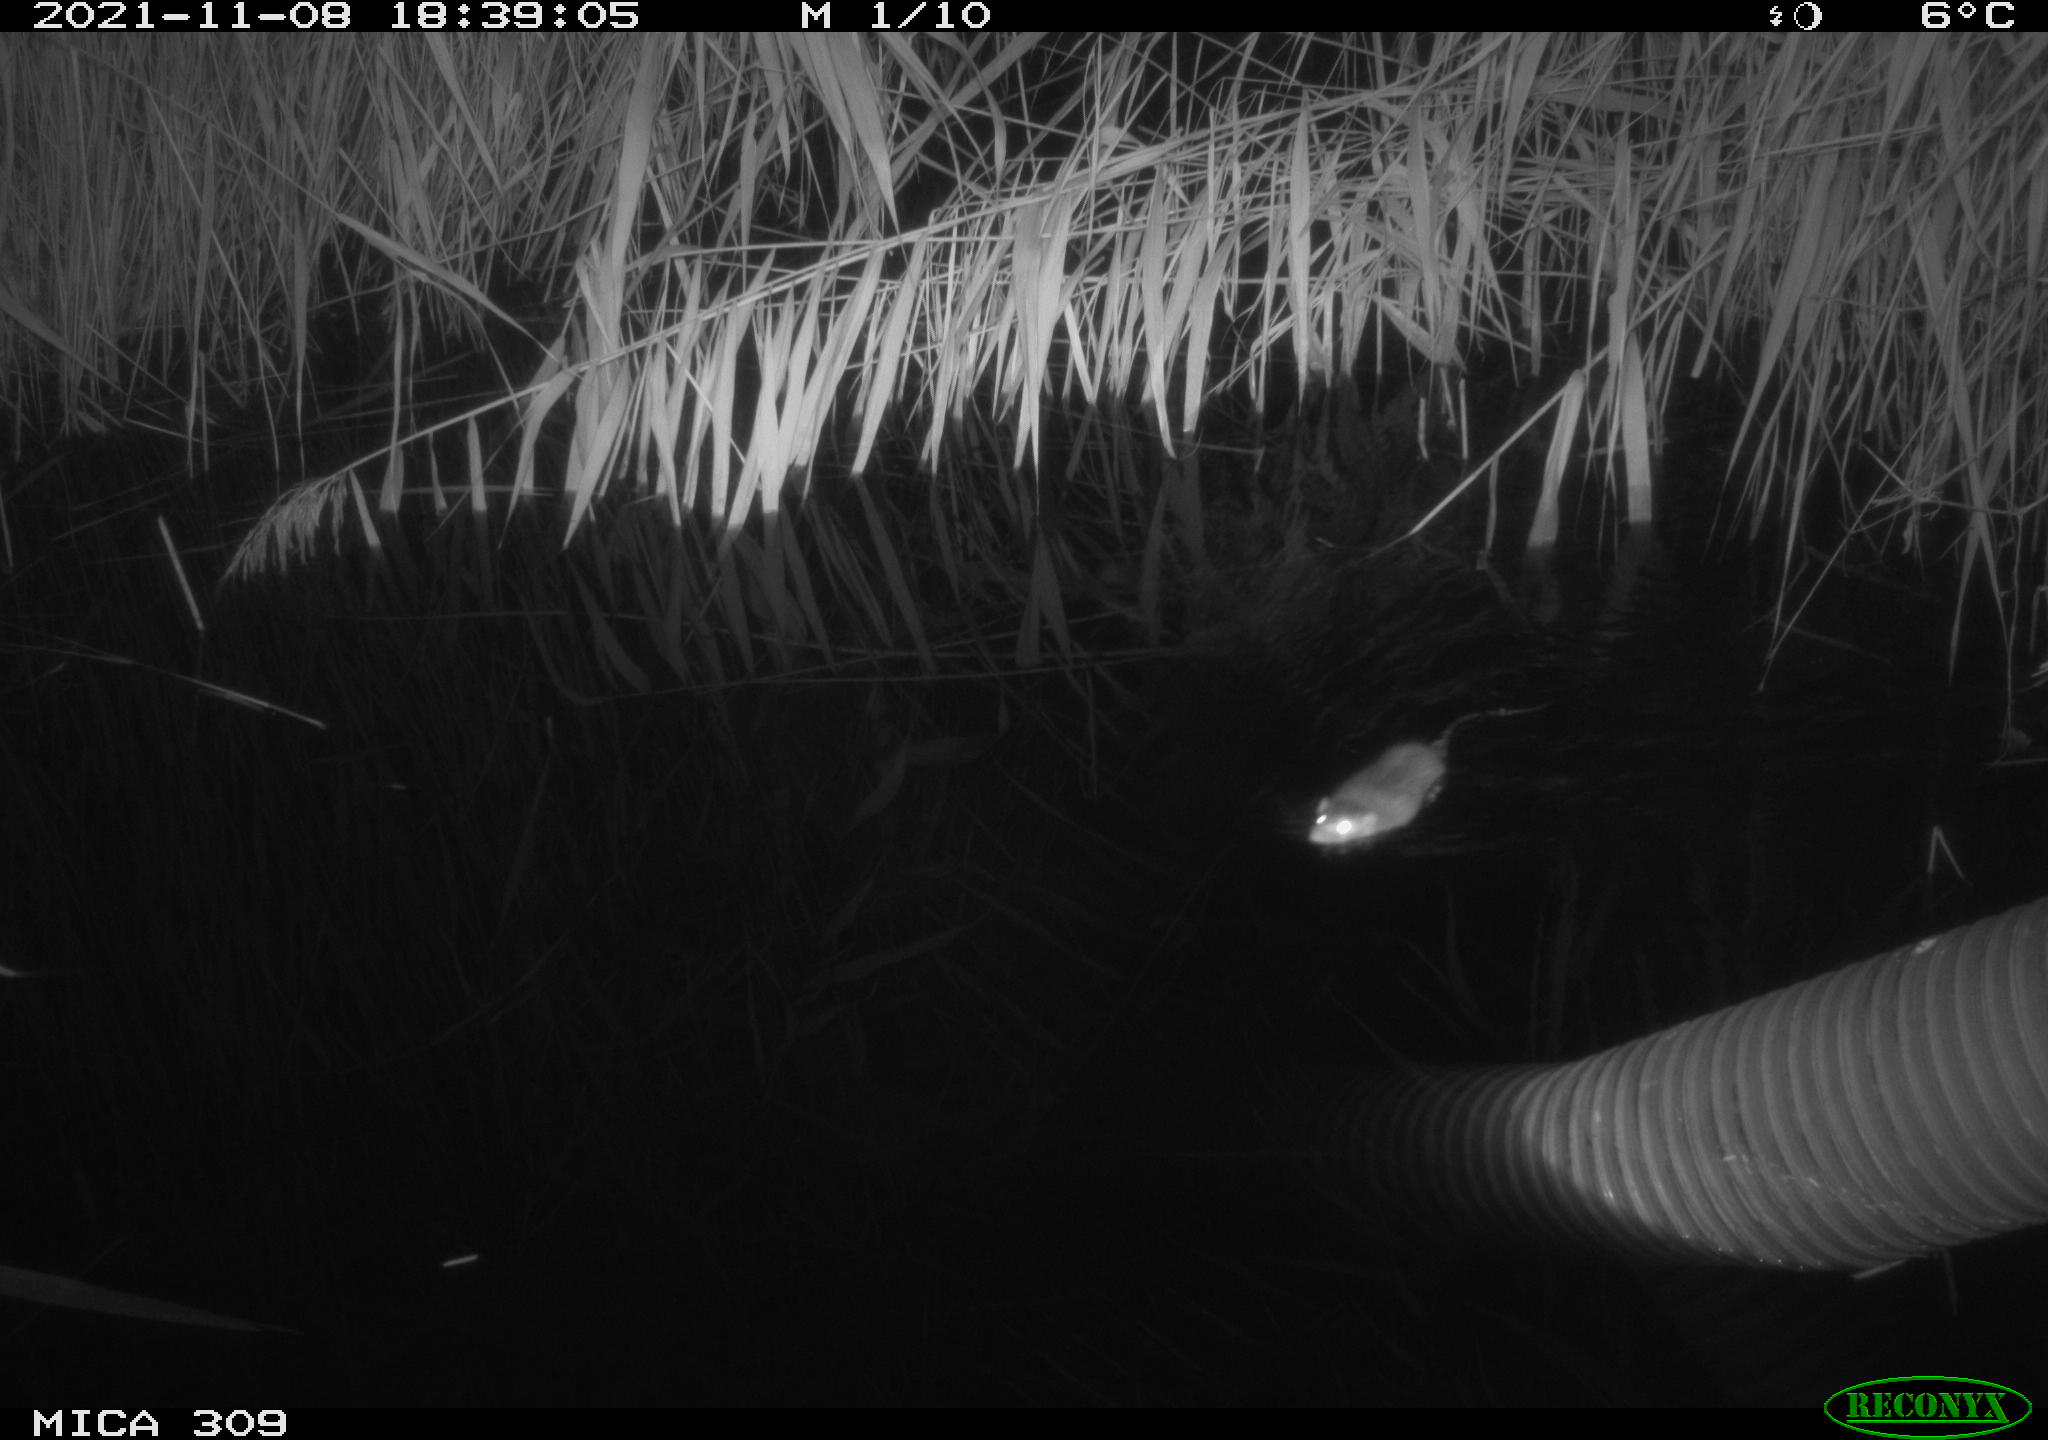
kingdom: Animalia
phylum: Chordata
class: Mammalia
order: Rodentia
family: Muridae
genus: Rattus
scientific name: Rattus norvegicus
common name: Brown rat
